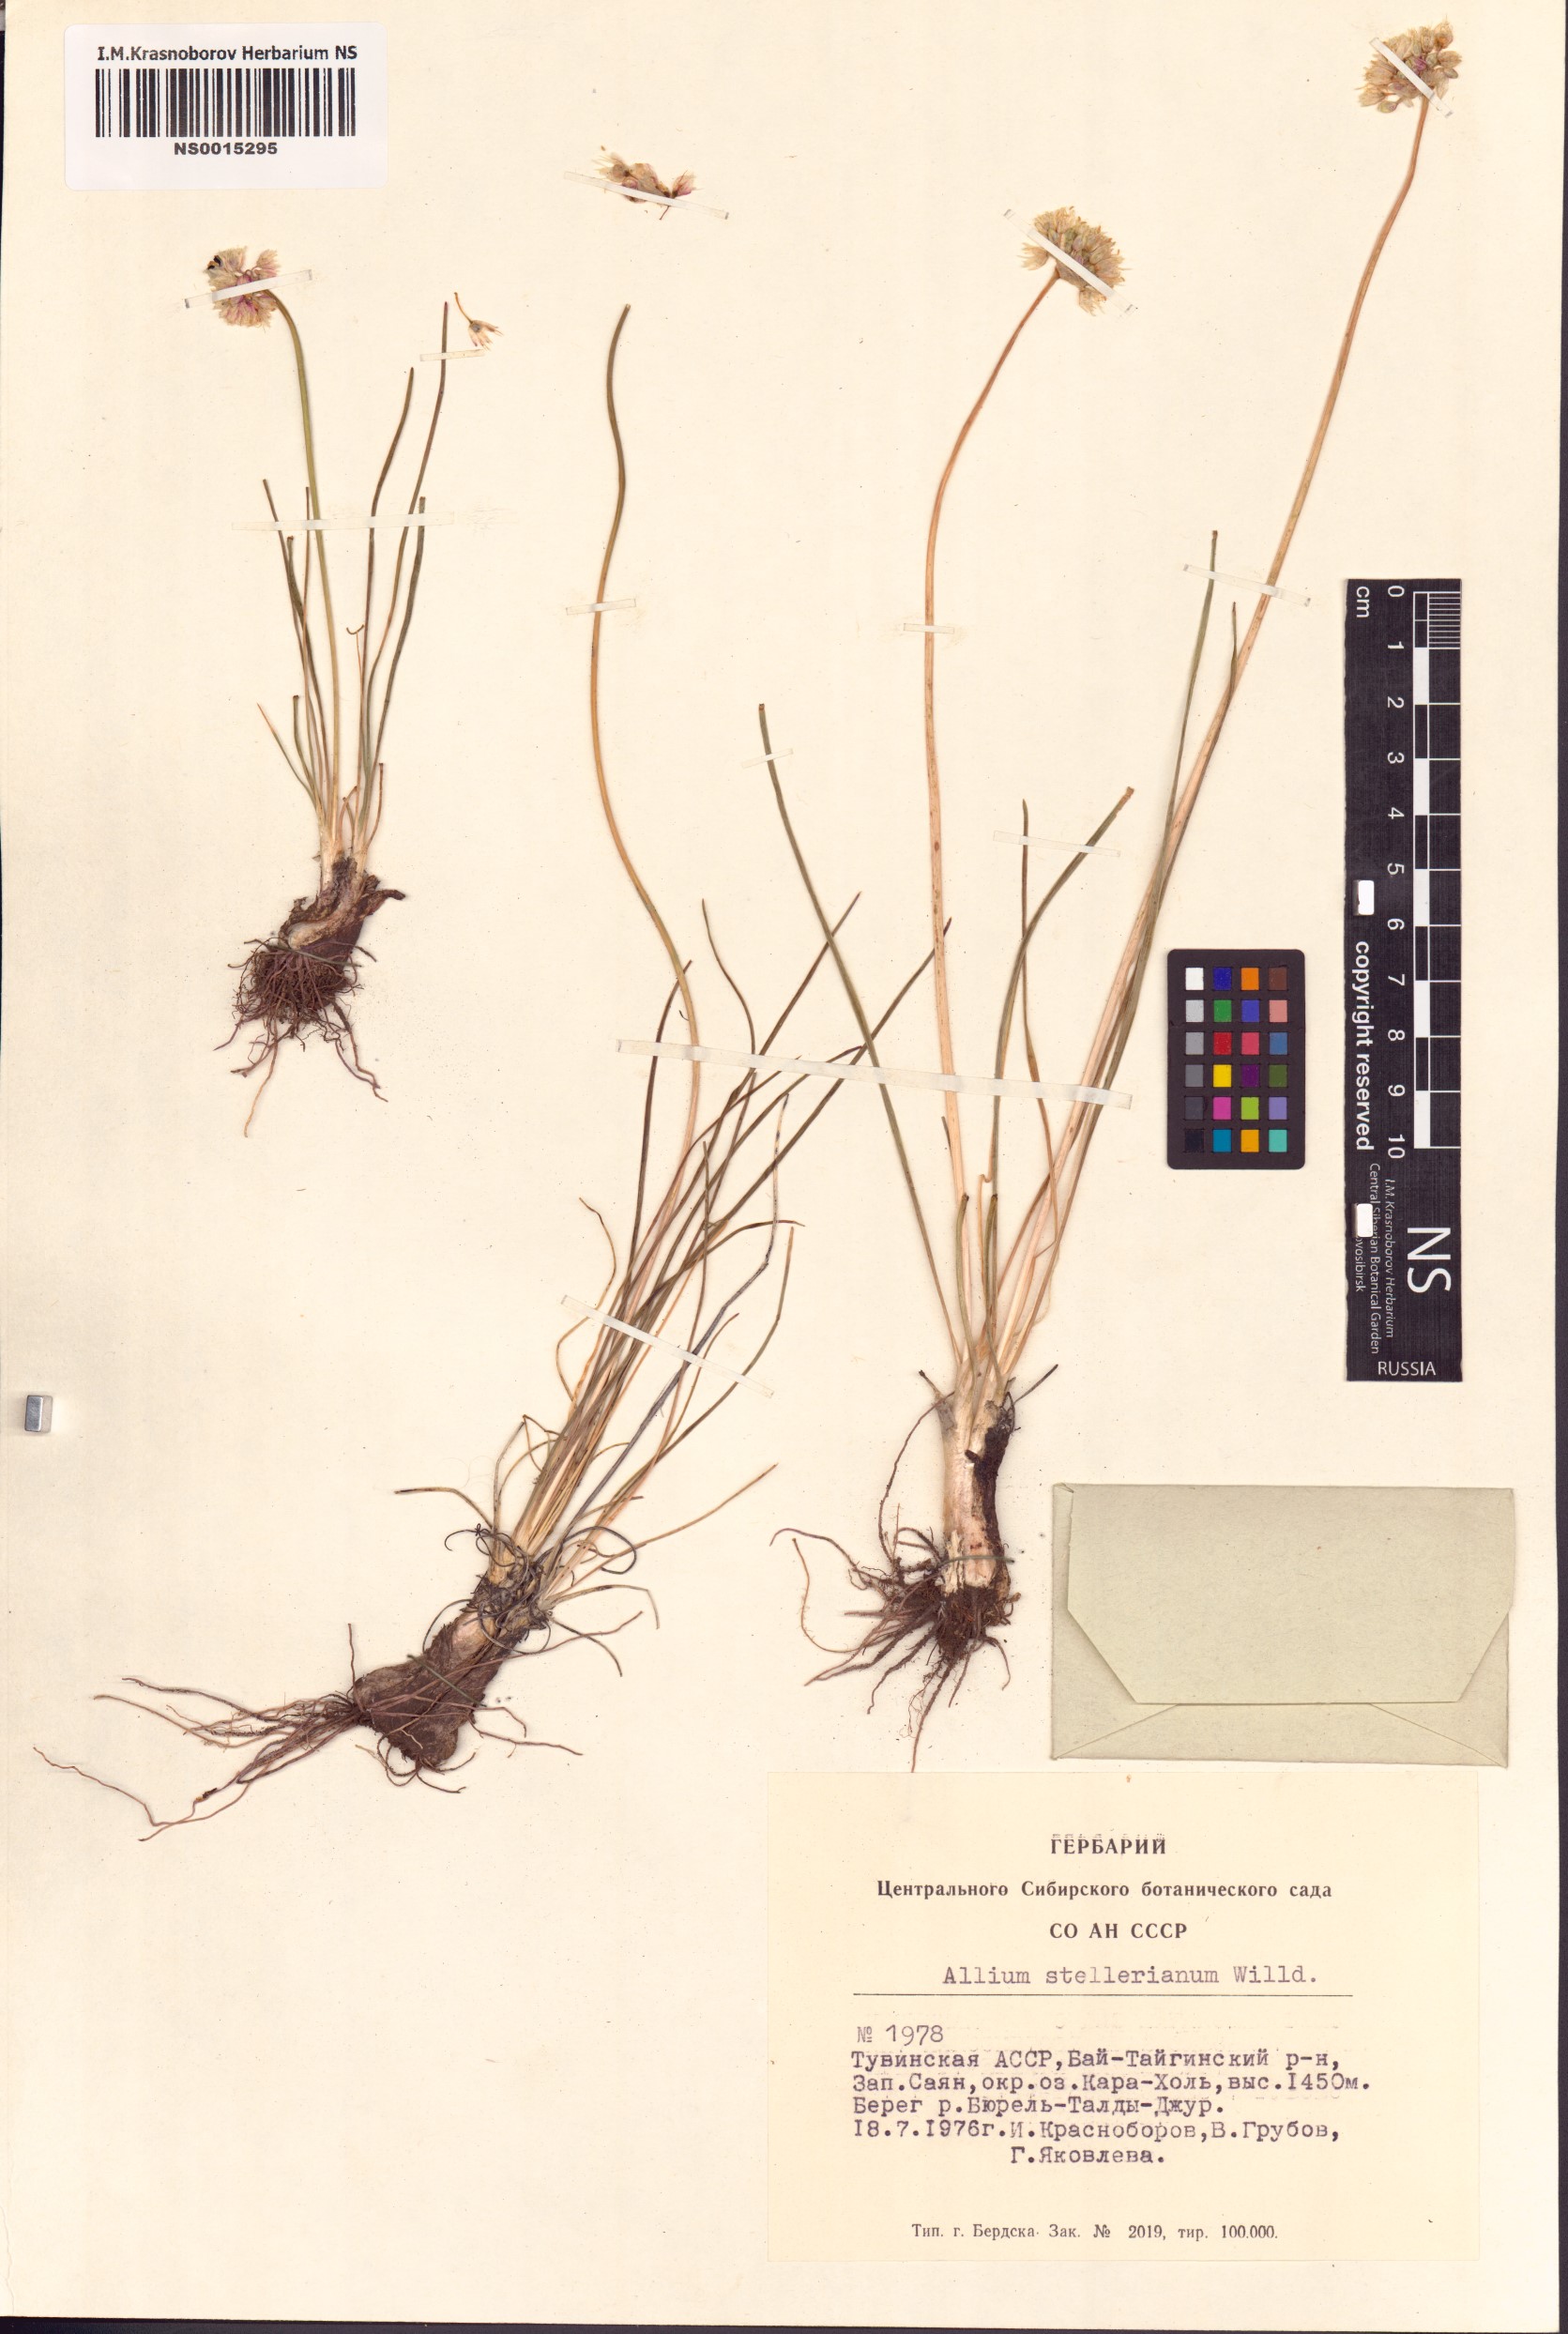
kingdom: Plantae
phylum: Tracheophyta
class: Liliopsida
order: Asparagales
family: Amaryllidaceae
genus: Allium
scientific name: Allium stellerianum
